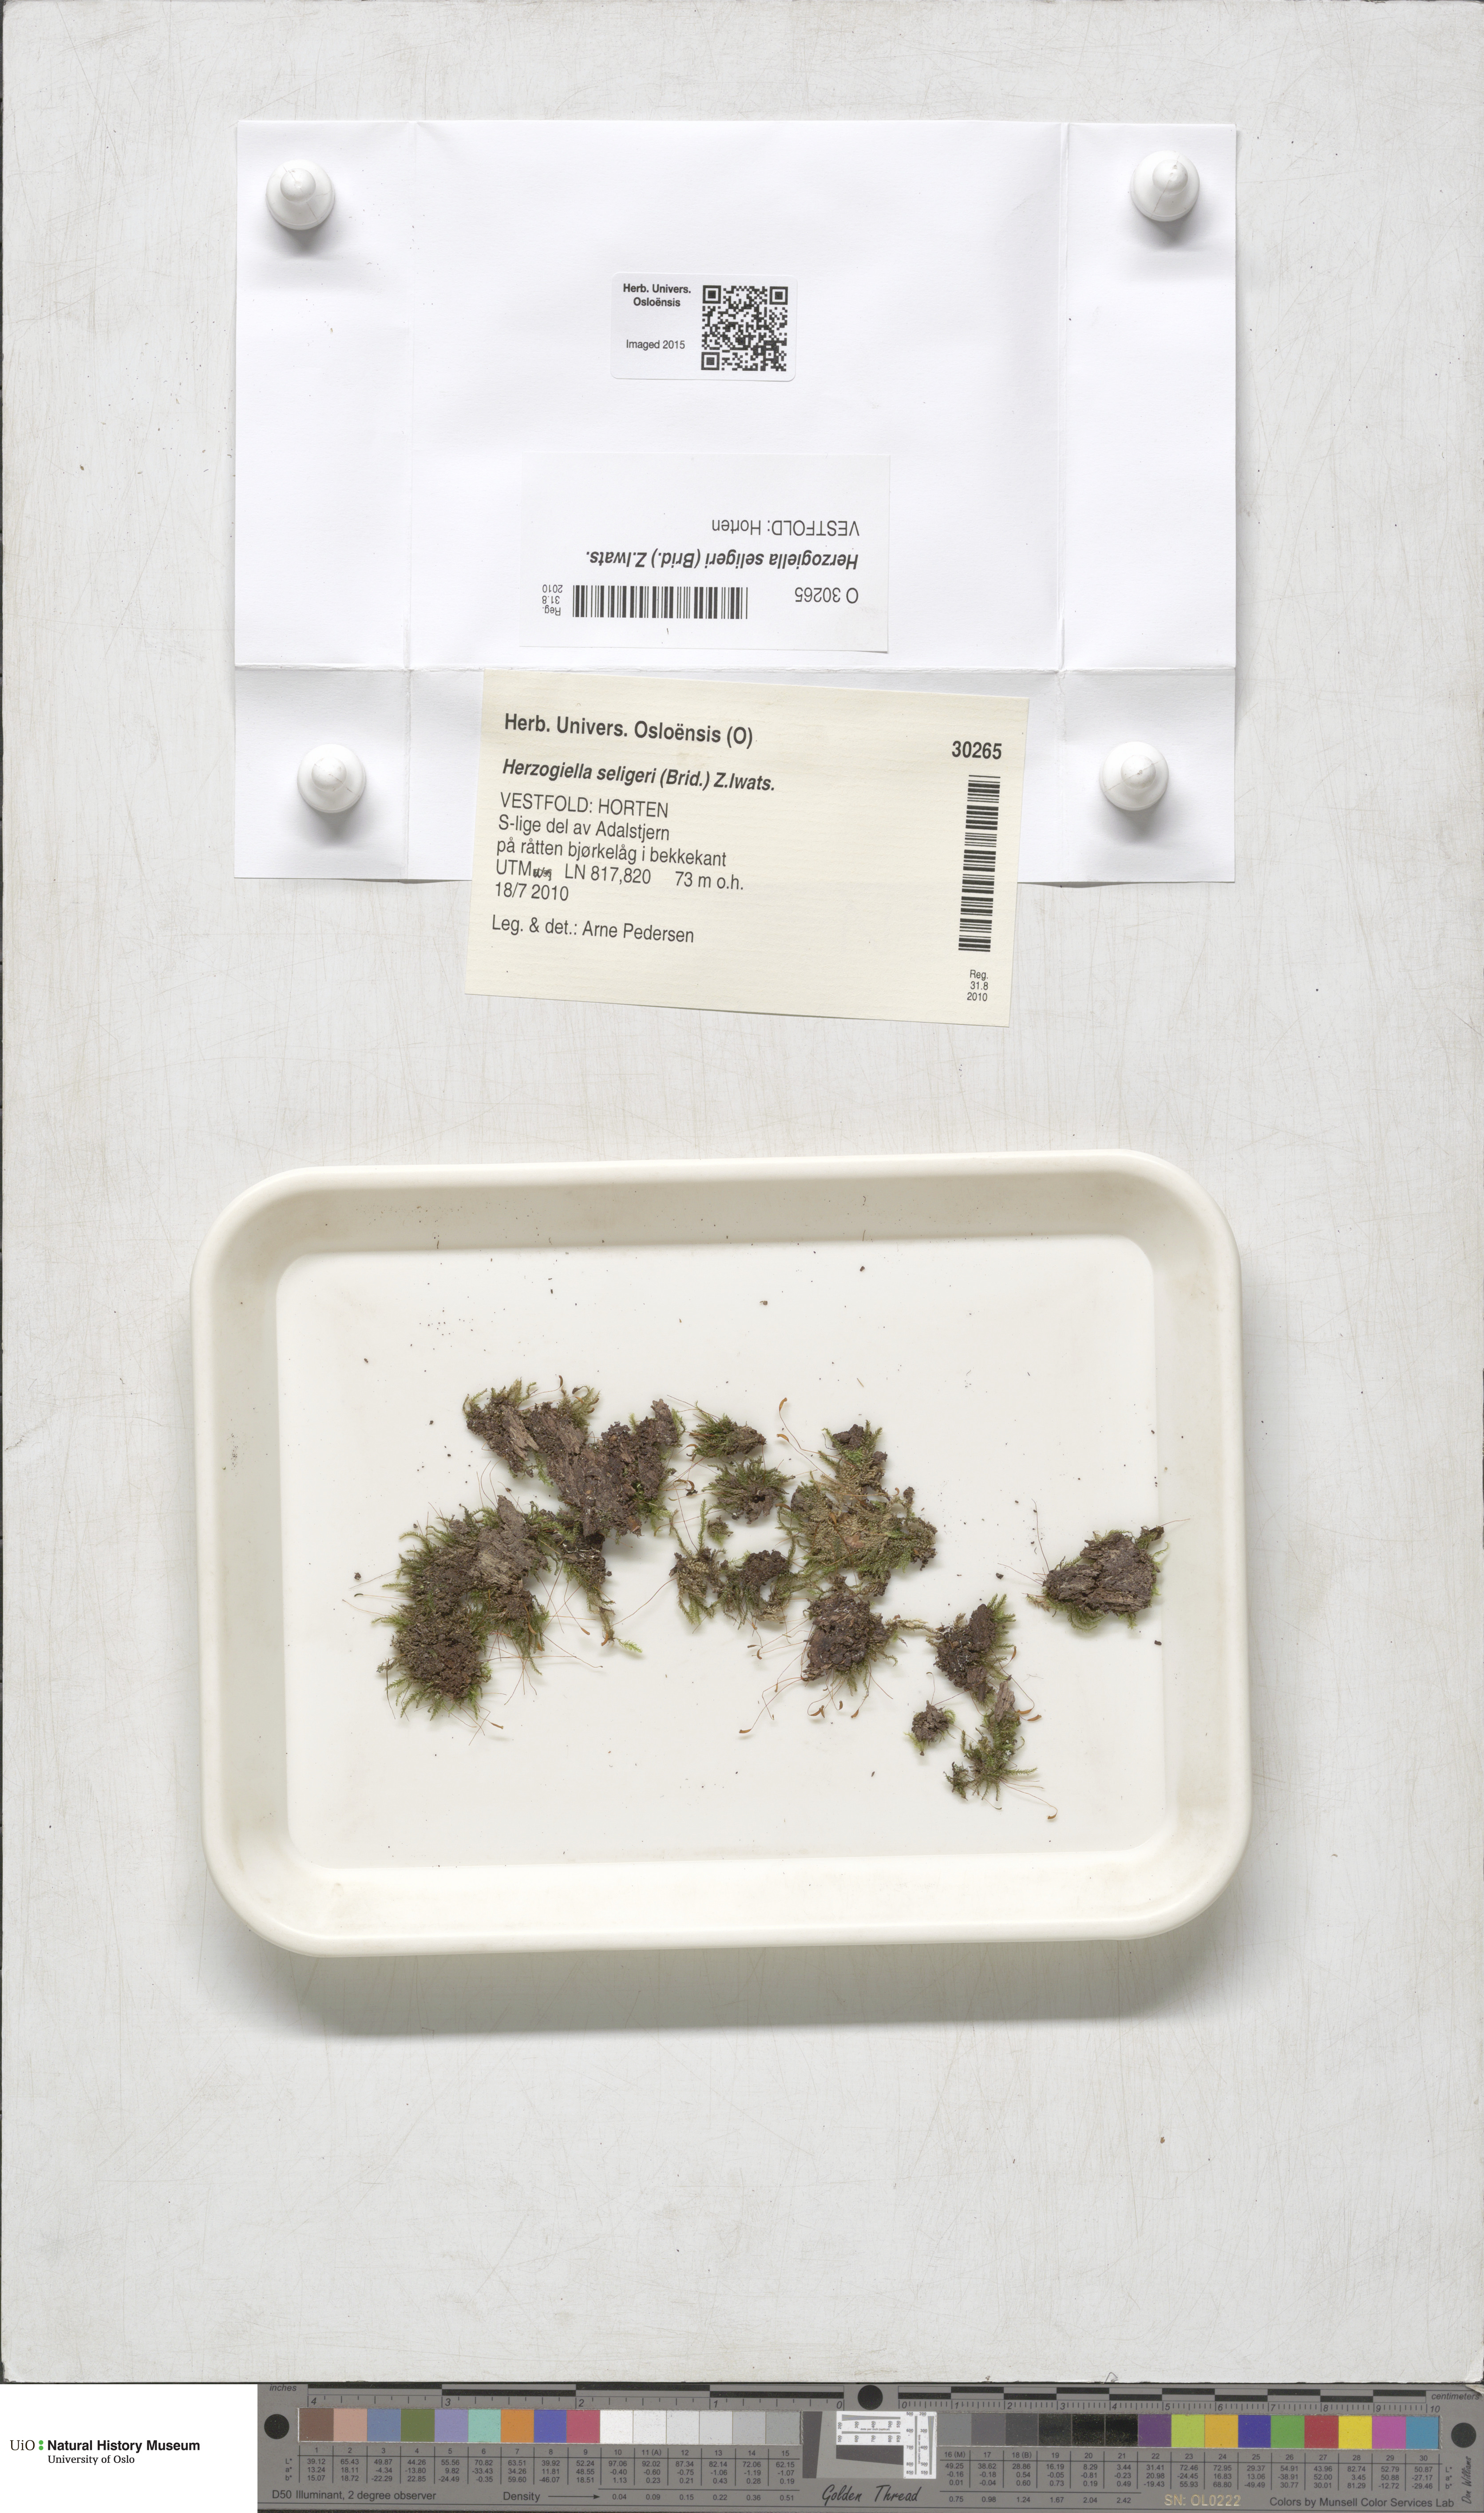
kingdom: Plantae
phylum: Bryophyta
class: Bryopsida
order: Hypnales
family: Plagiotheciaceae
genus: Herzogiella
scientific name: Herzogiella seligeri
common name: Silesian feather-moss
